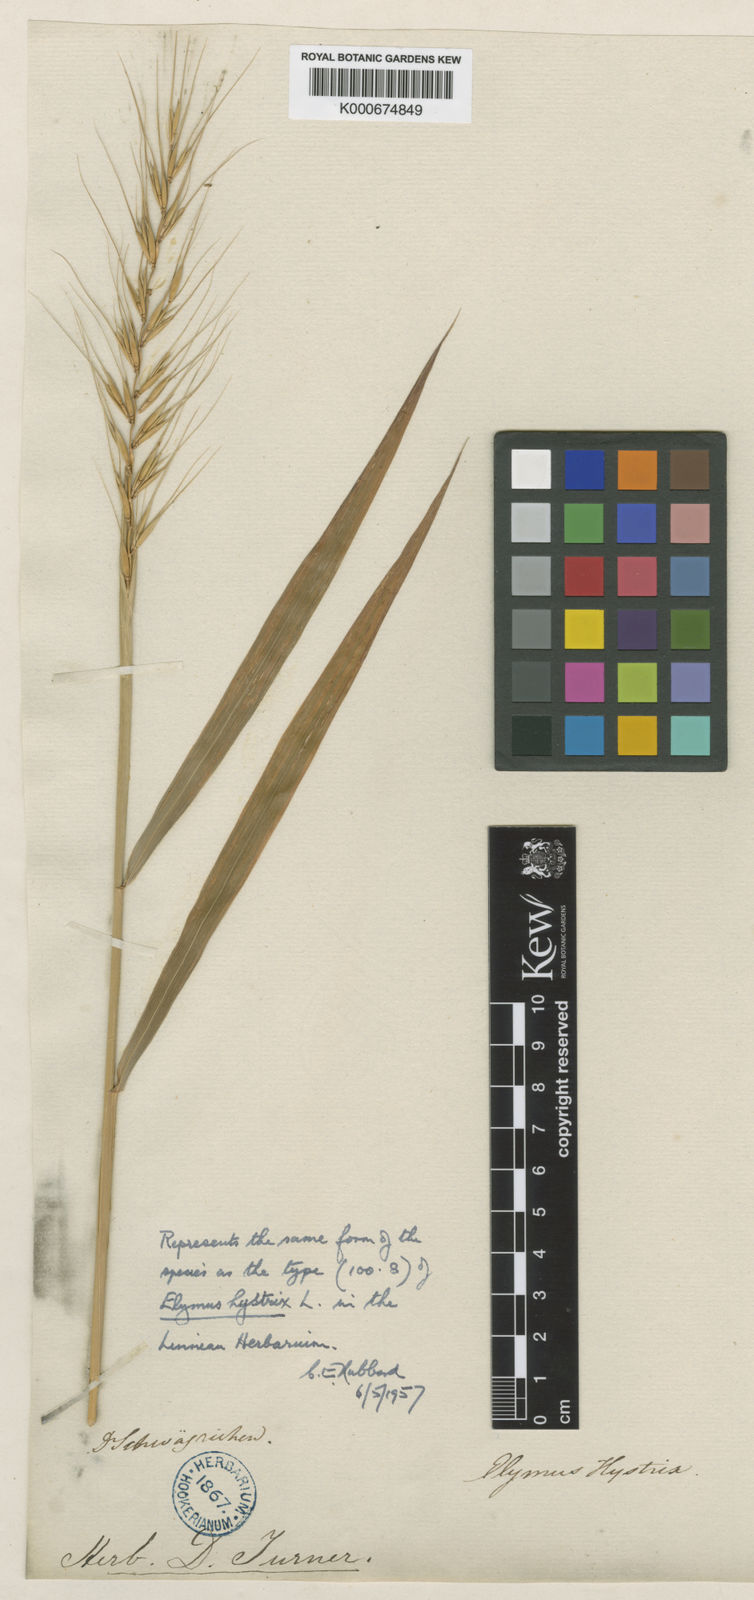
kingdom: Plantae
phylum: Tracheophyta
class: Liliopsida
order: Poales
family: Poaceae
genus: Elymus
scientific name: Elymus hystrix
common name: Bottlebrush grass
